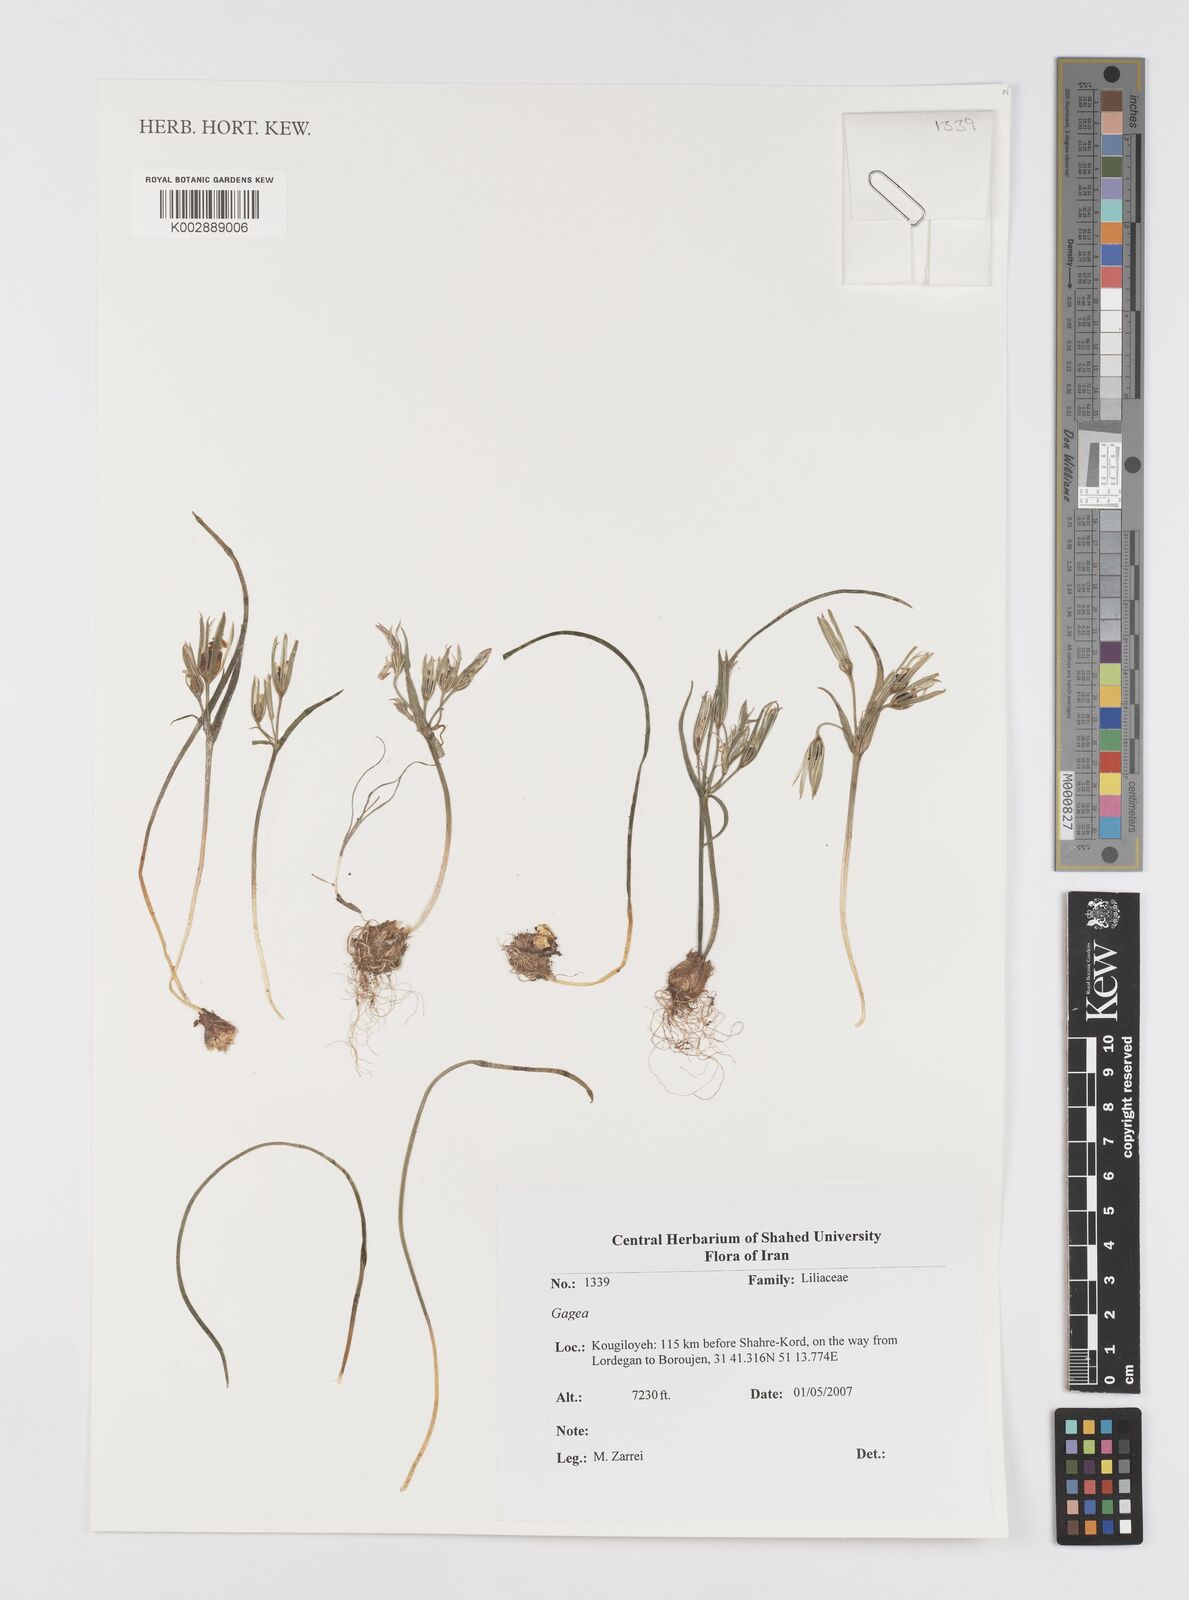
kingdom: Plantae
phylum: Tracheophyta
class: Liliopsida
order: Liliales
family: Liliaceae
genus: Gagea
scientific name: Gagea
